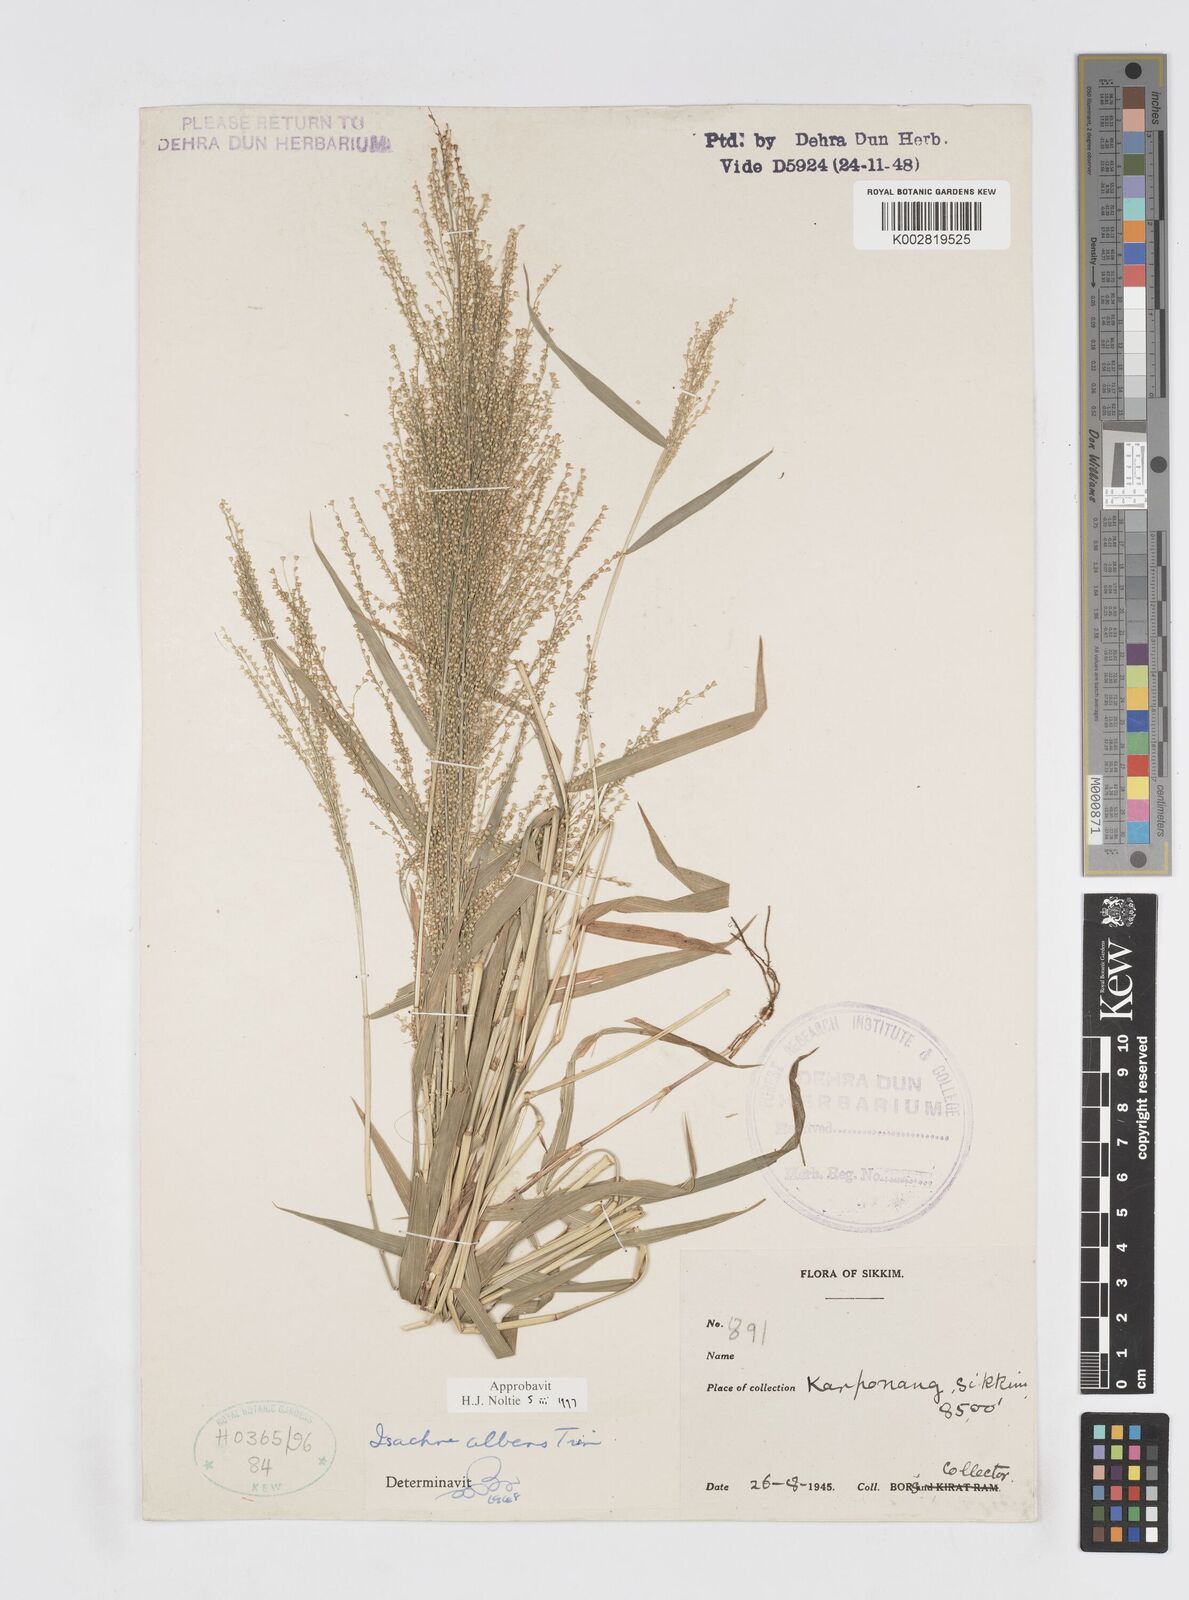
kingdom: Plantae
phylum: Tracheophyta
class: Liliopsida
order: Poales
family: Poaceae
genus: Isachne
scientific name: Isachne albens
